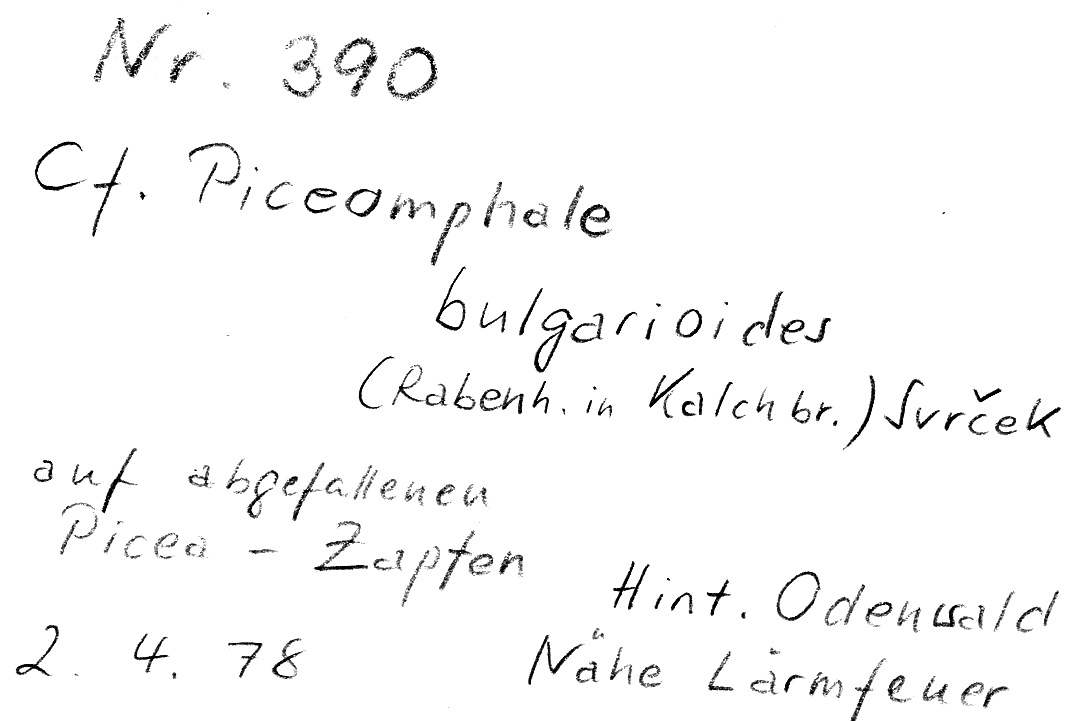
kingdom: Plantae
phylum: Tracheophyta
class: Pinopsida
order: Pinales
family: Pinaceae
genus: Picea
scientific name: Picea
